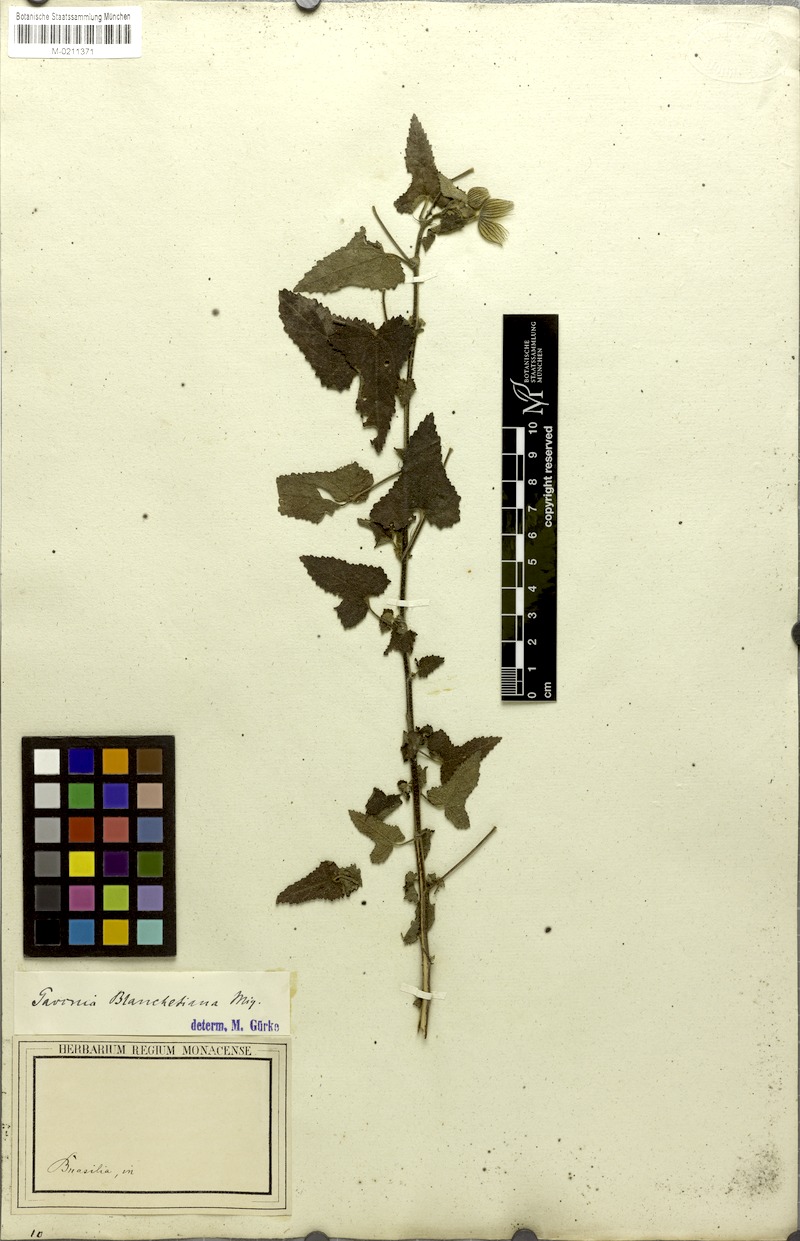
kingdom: Plantae
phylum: Tracheophyta
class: Magnoliopsida
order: Malvales
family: Malvaceae
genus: Pavonia
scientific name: Pavonia blanchetiana
